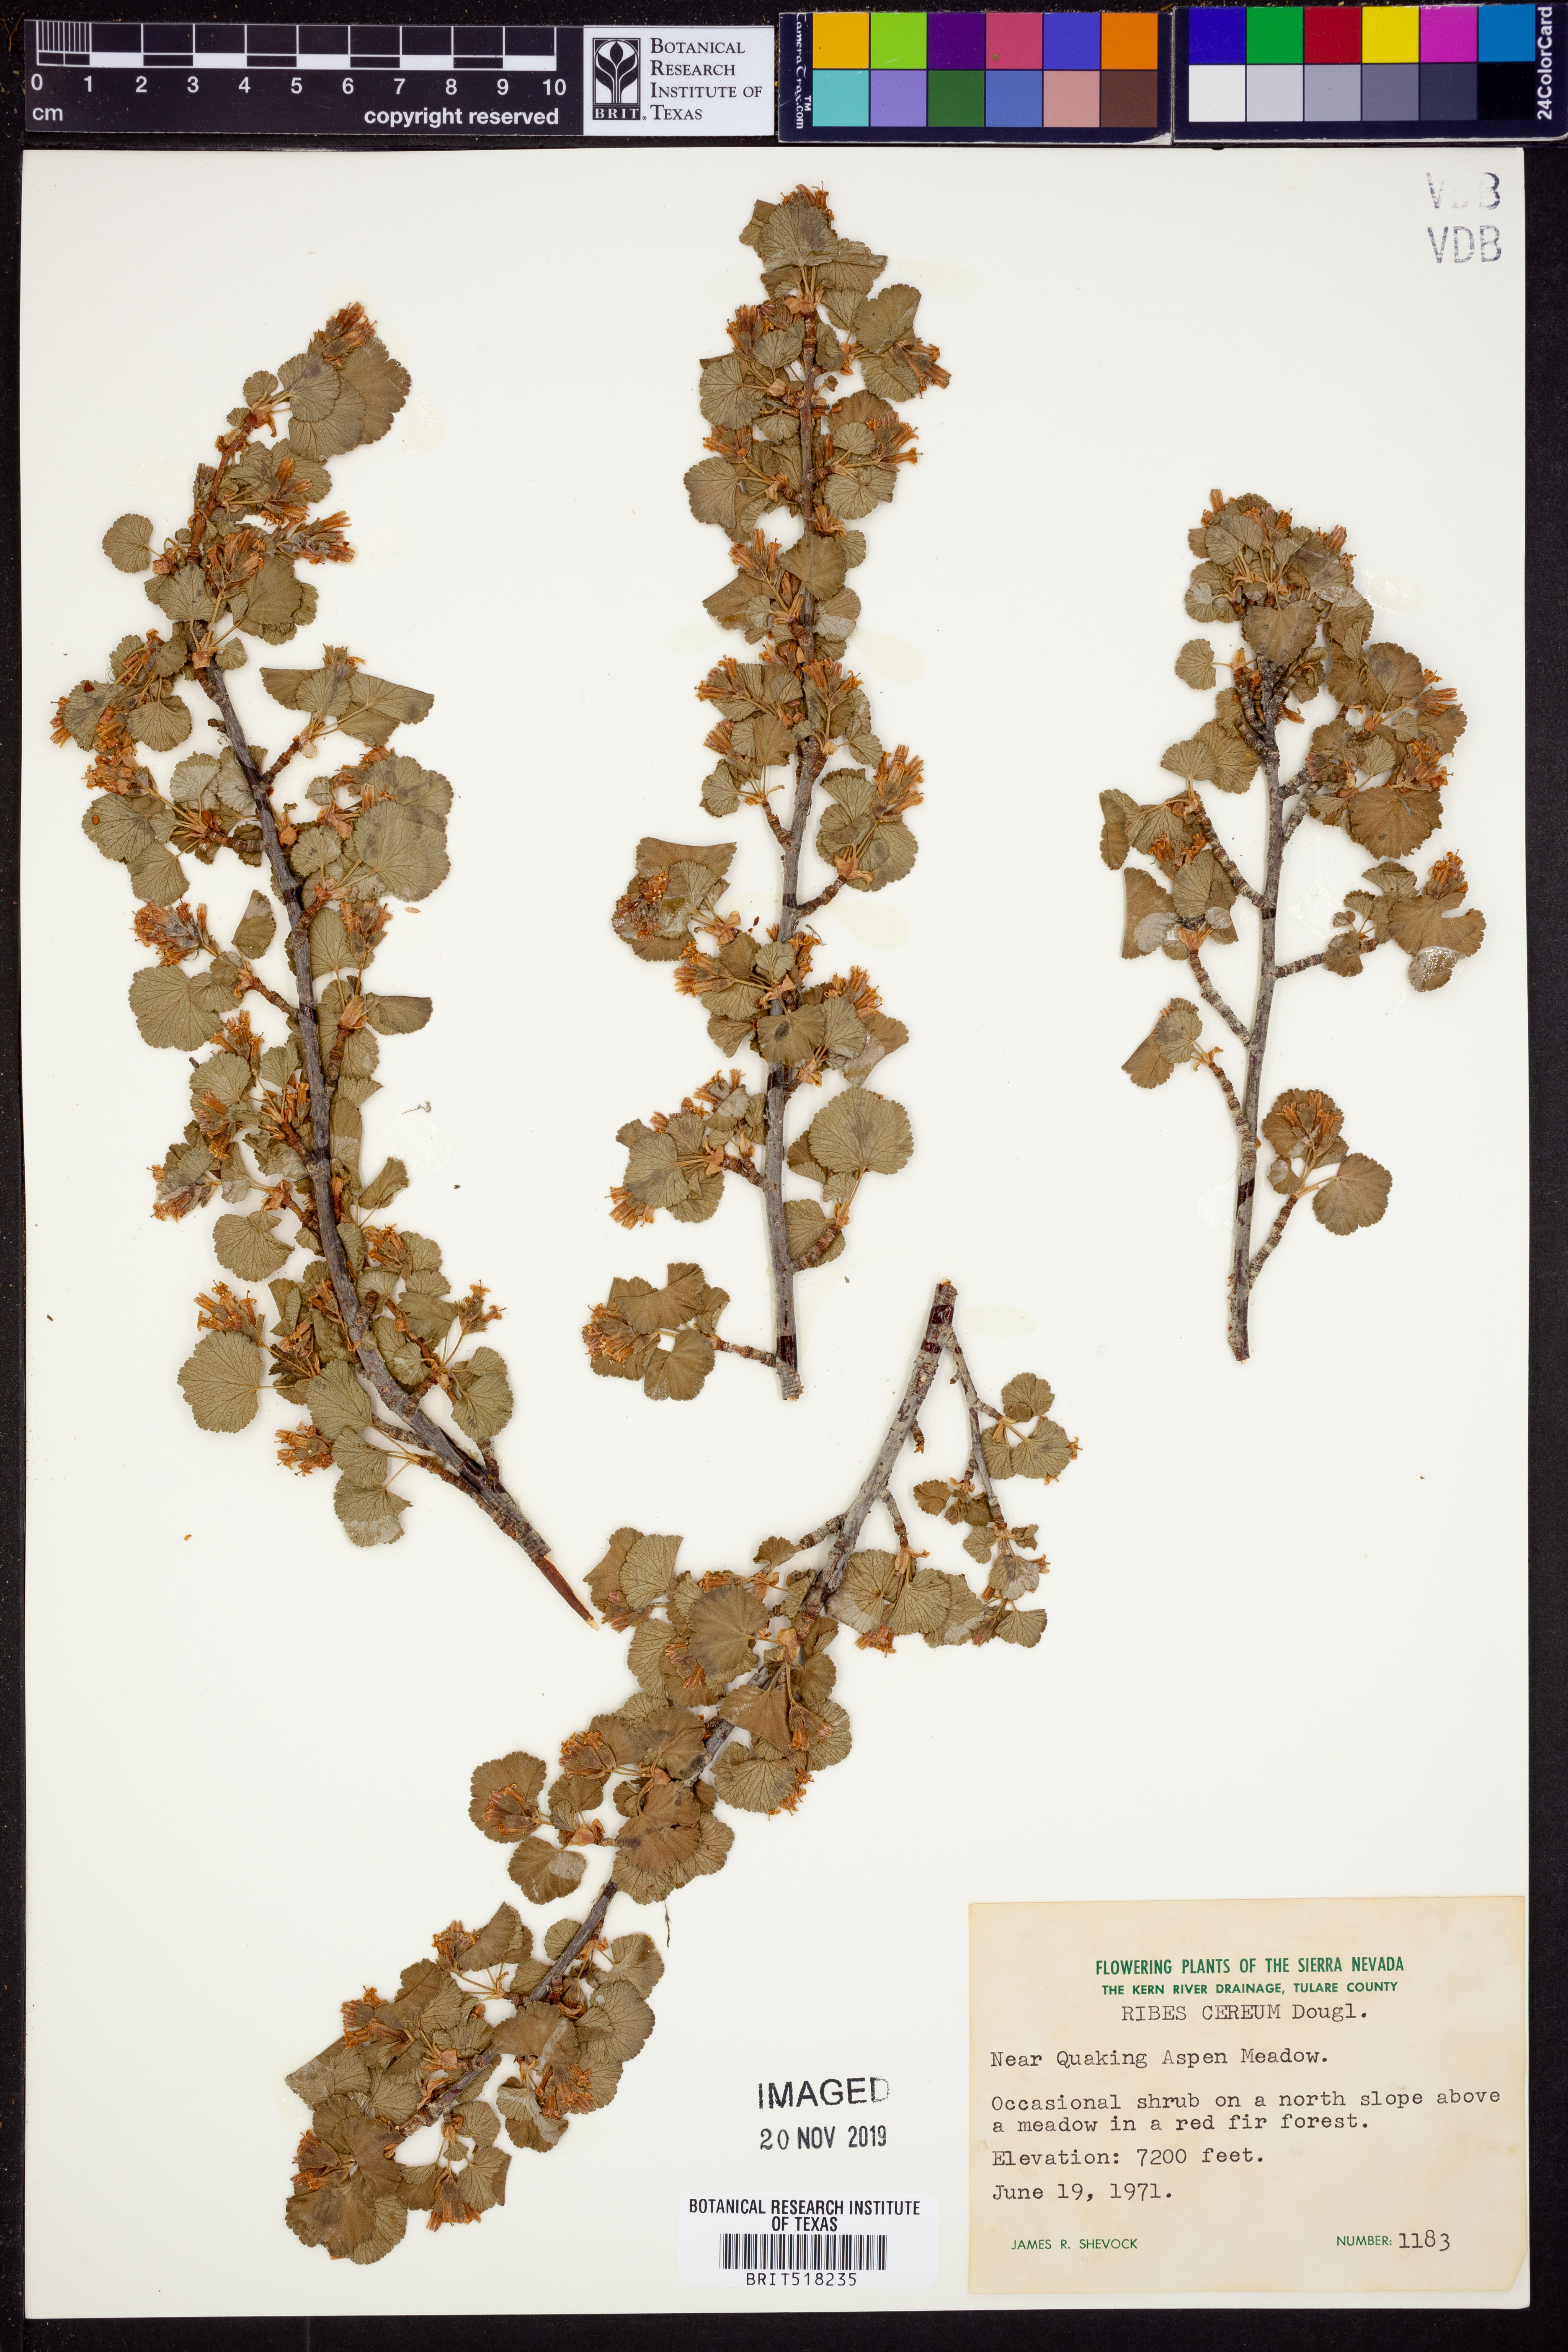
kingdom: Plantae
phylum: Tracheophyta
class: Magnoliopsida
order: Saxifragales
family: Grossulariaceae
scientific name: Grossulariaceae
